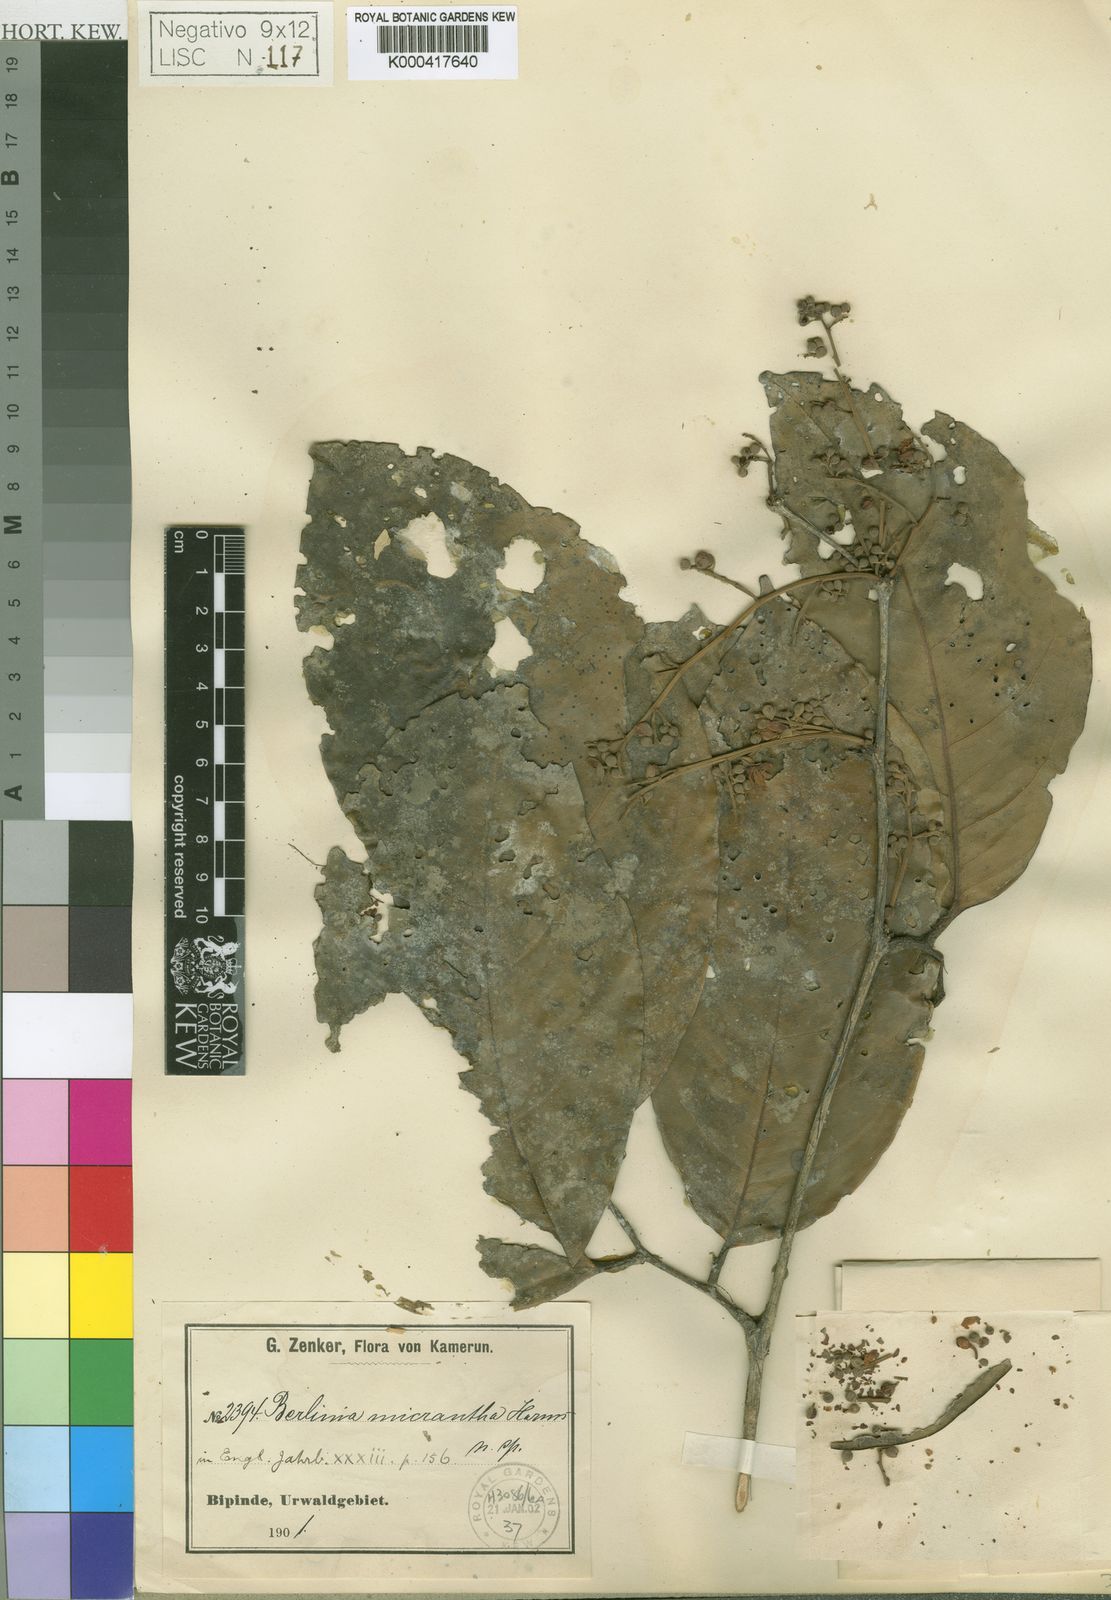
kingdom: Plantae
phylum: Tracheophyta
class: Magnoliopsida
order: Fabales
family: Fabaceae
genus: Oddoniodendron
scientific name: Oddoniodendron micranthum
